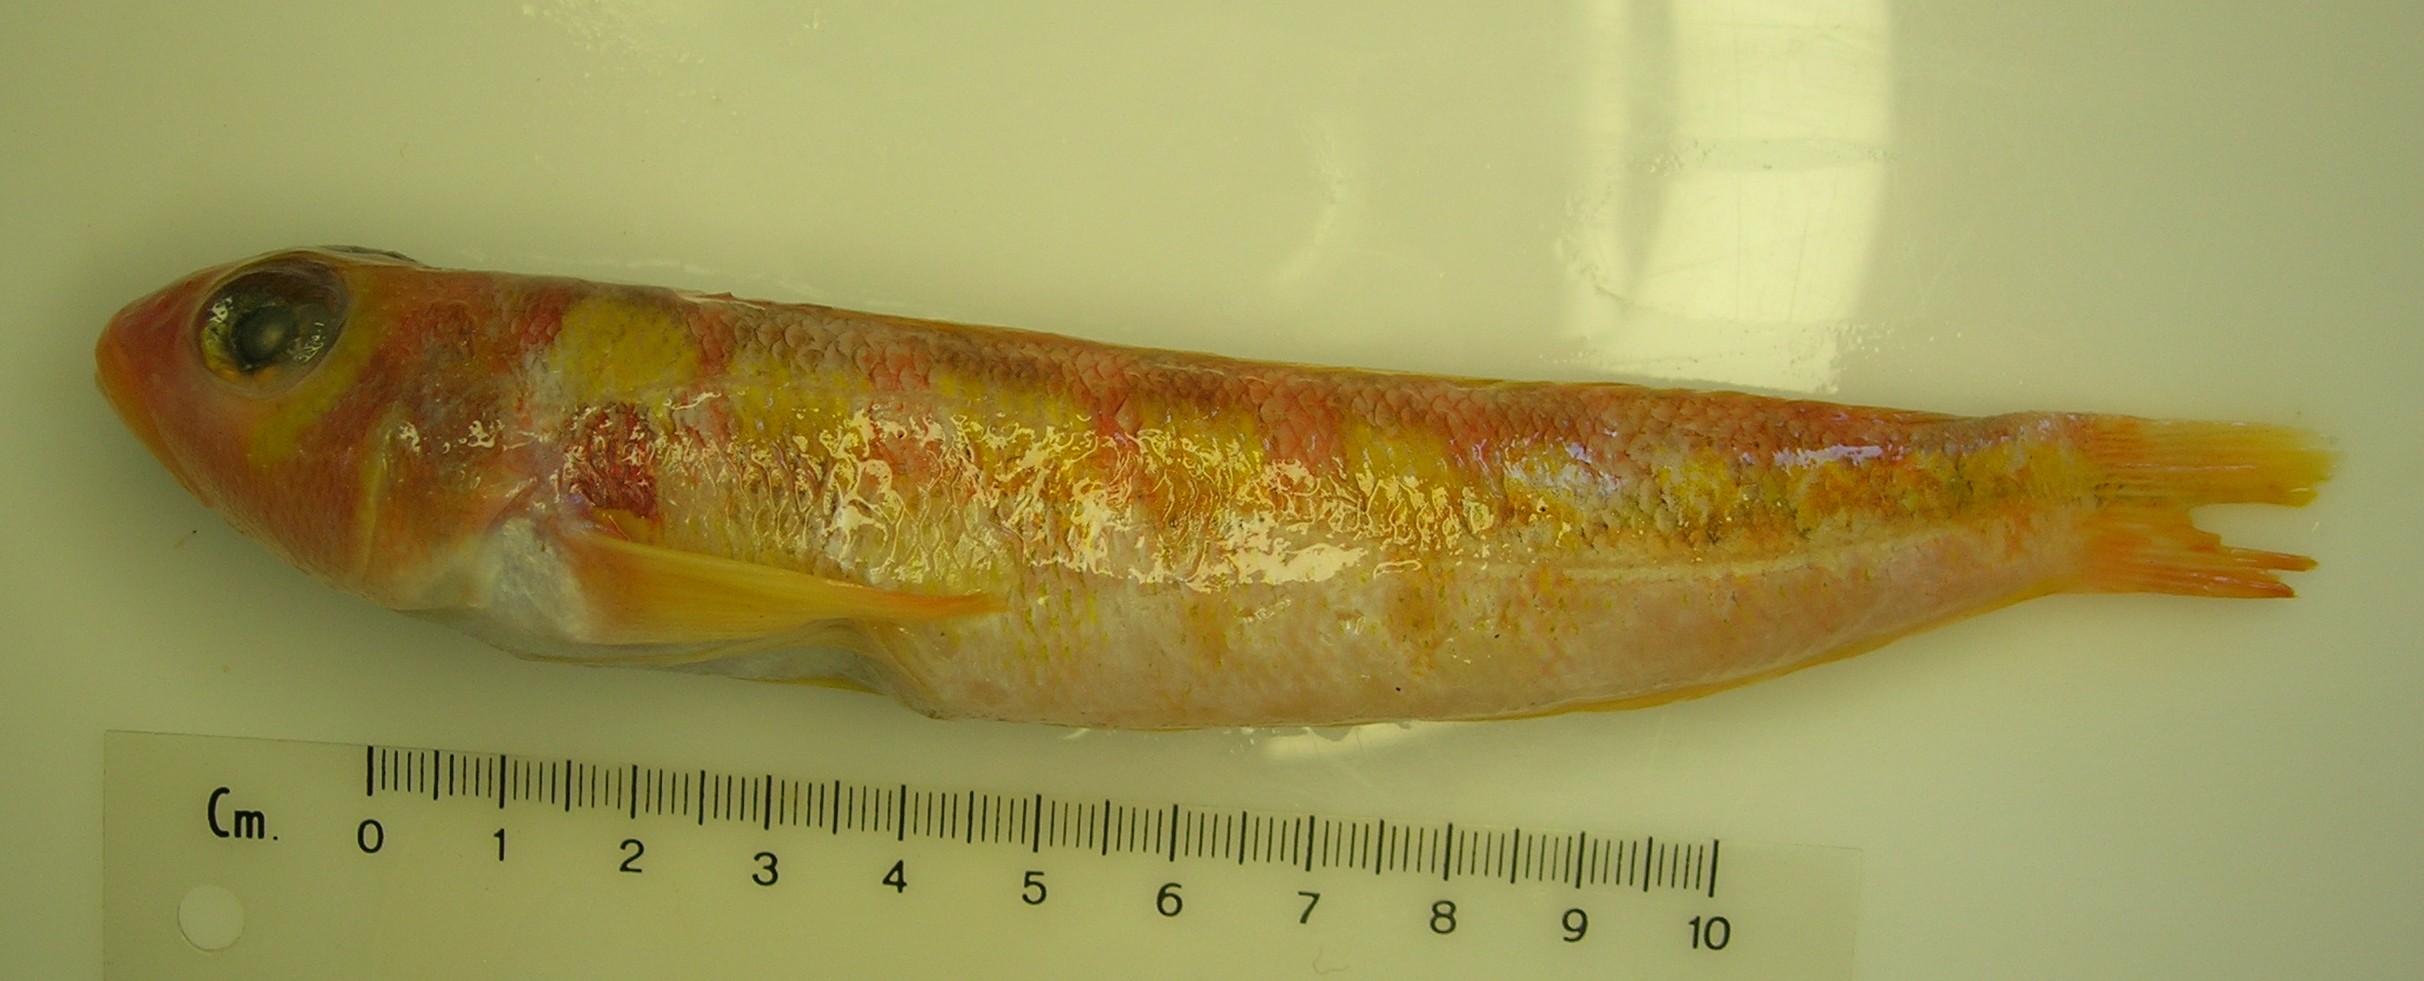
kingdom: Animalia
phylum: Chordata
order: Perciformes
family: Pinguipedidae
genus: Parapercis
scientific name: Parapercis maritzi
